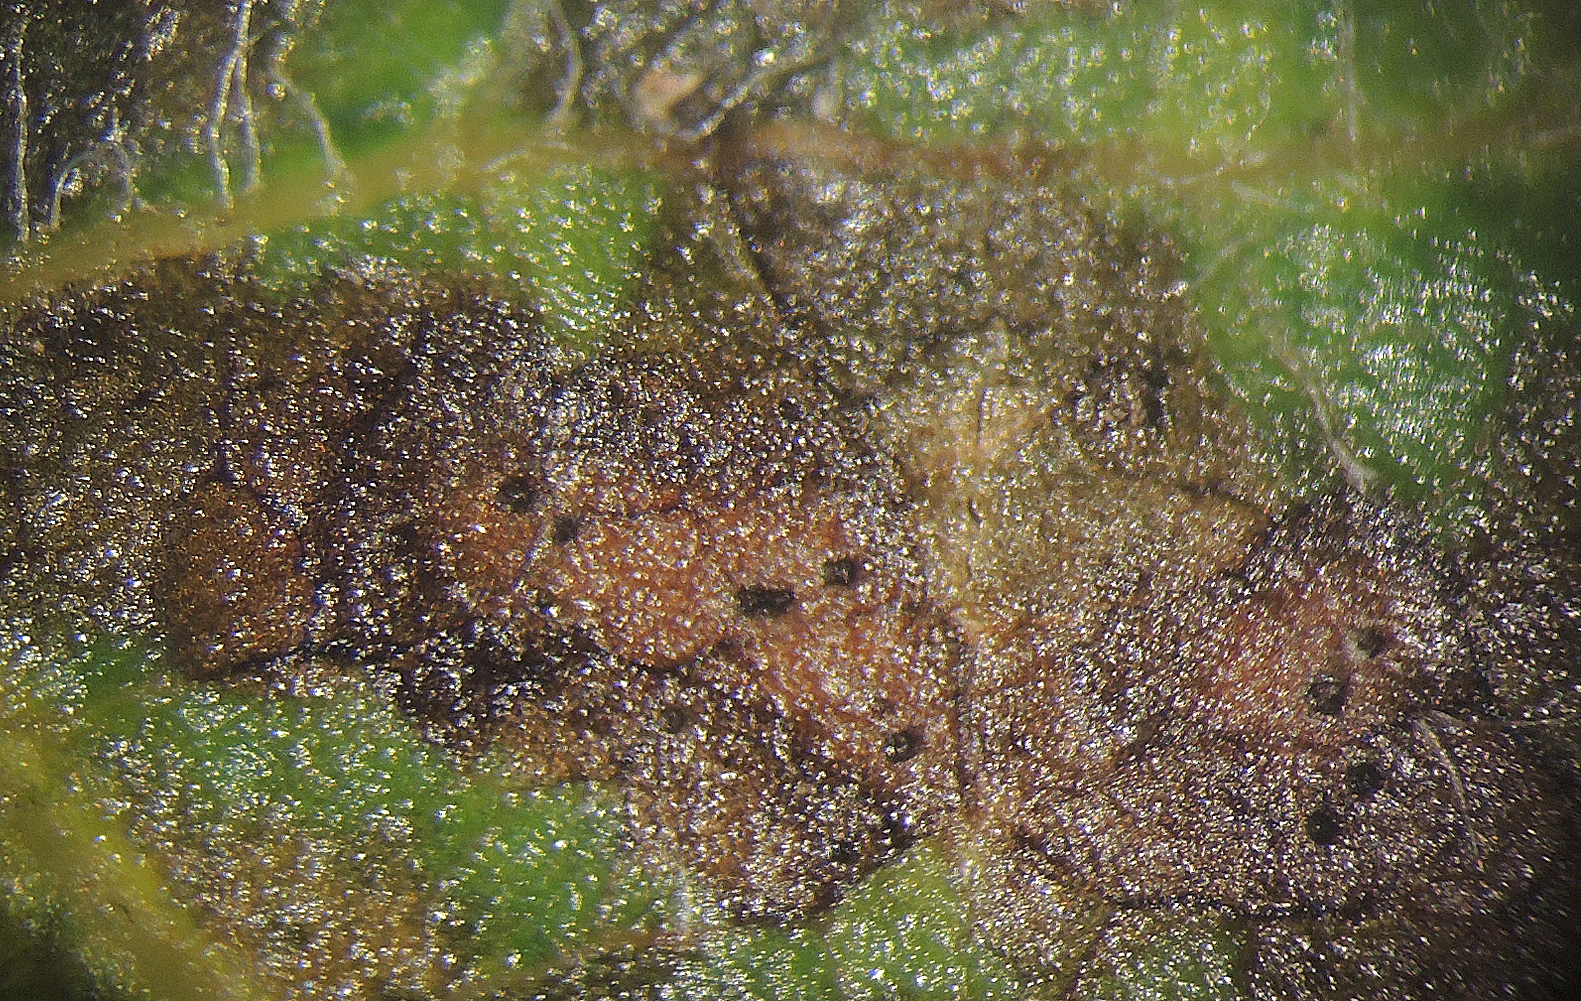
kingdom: Fungi
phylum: Ascomycota
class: Dothideomycetes
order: Mycosphaerellales
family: Mycosphaerellaceae
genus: Sphaerulina
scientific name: Sphaerulina oxyacanthae
